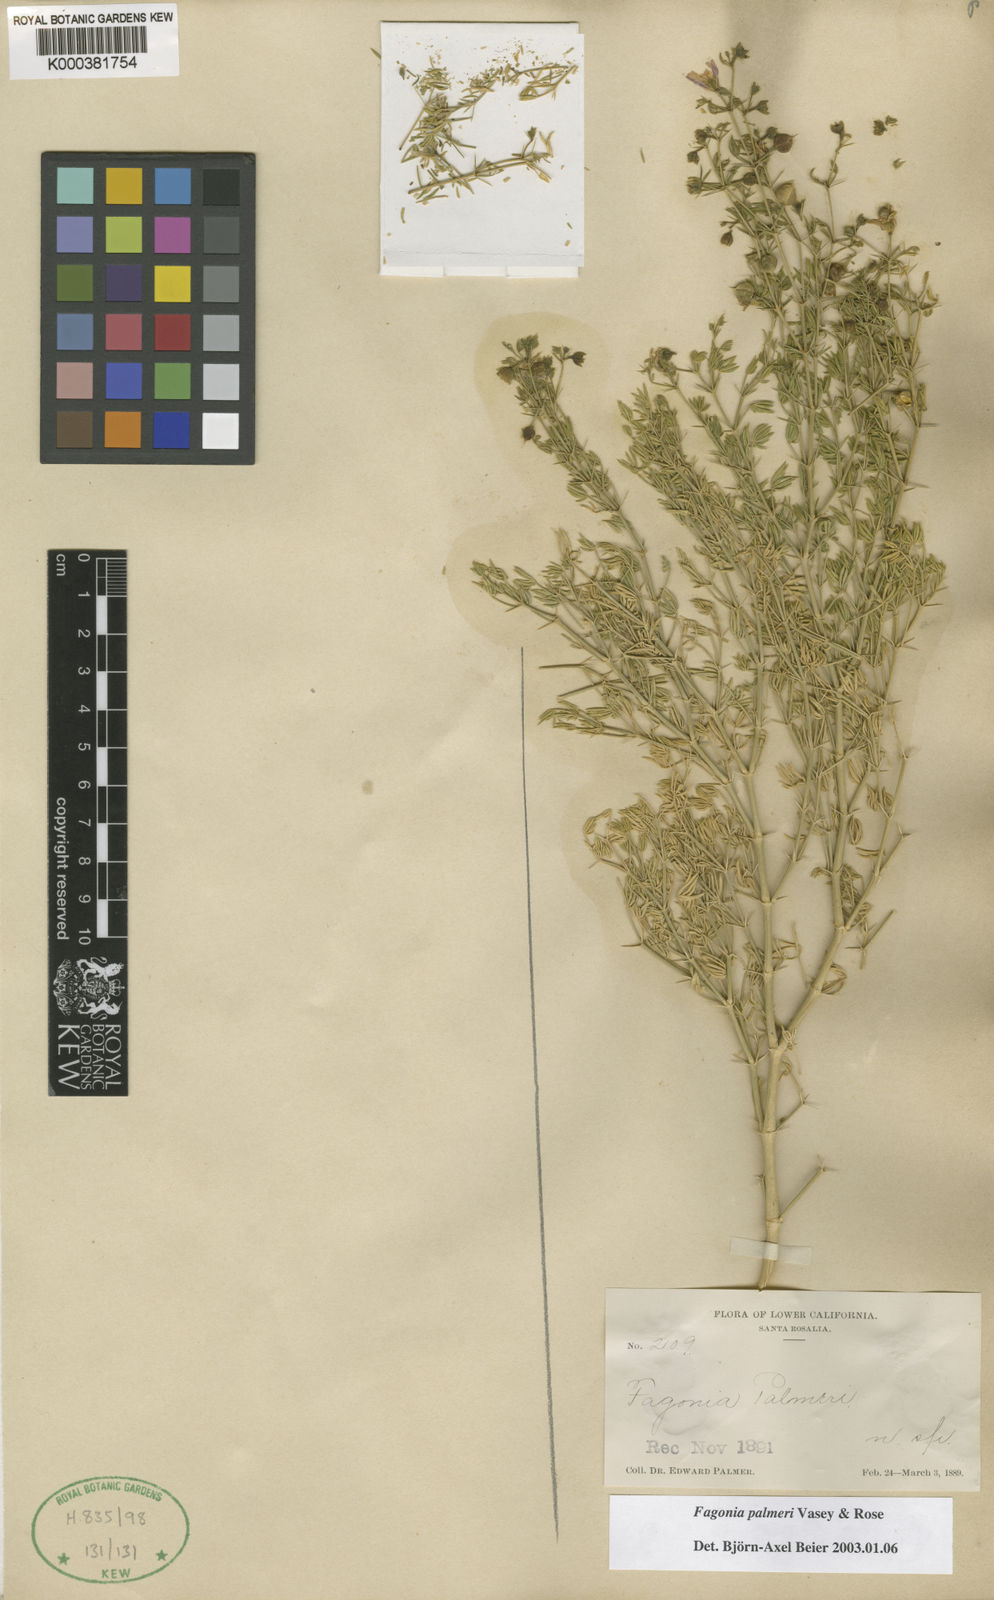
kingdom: Plantae
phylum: Tracheophyta
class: Magnoliopsida
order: Zygophyllales
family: Zygophyllaceae
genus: Fagonia
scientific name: Fagonia palmeri
